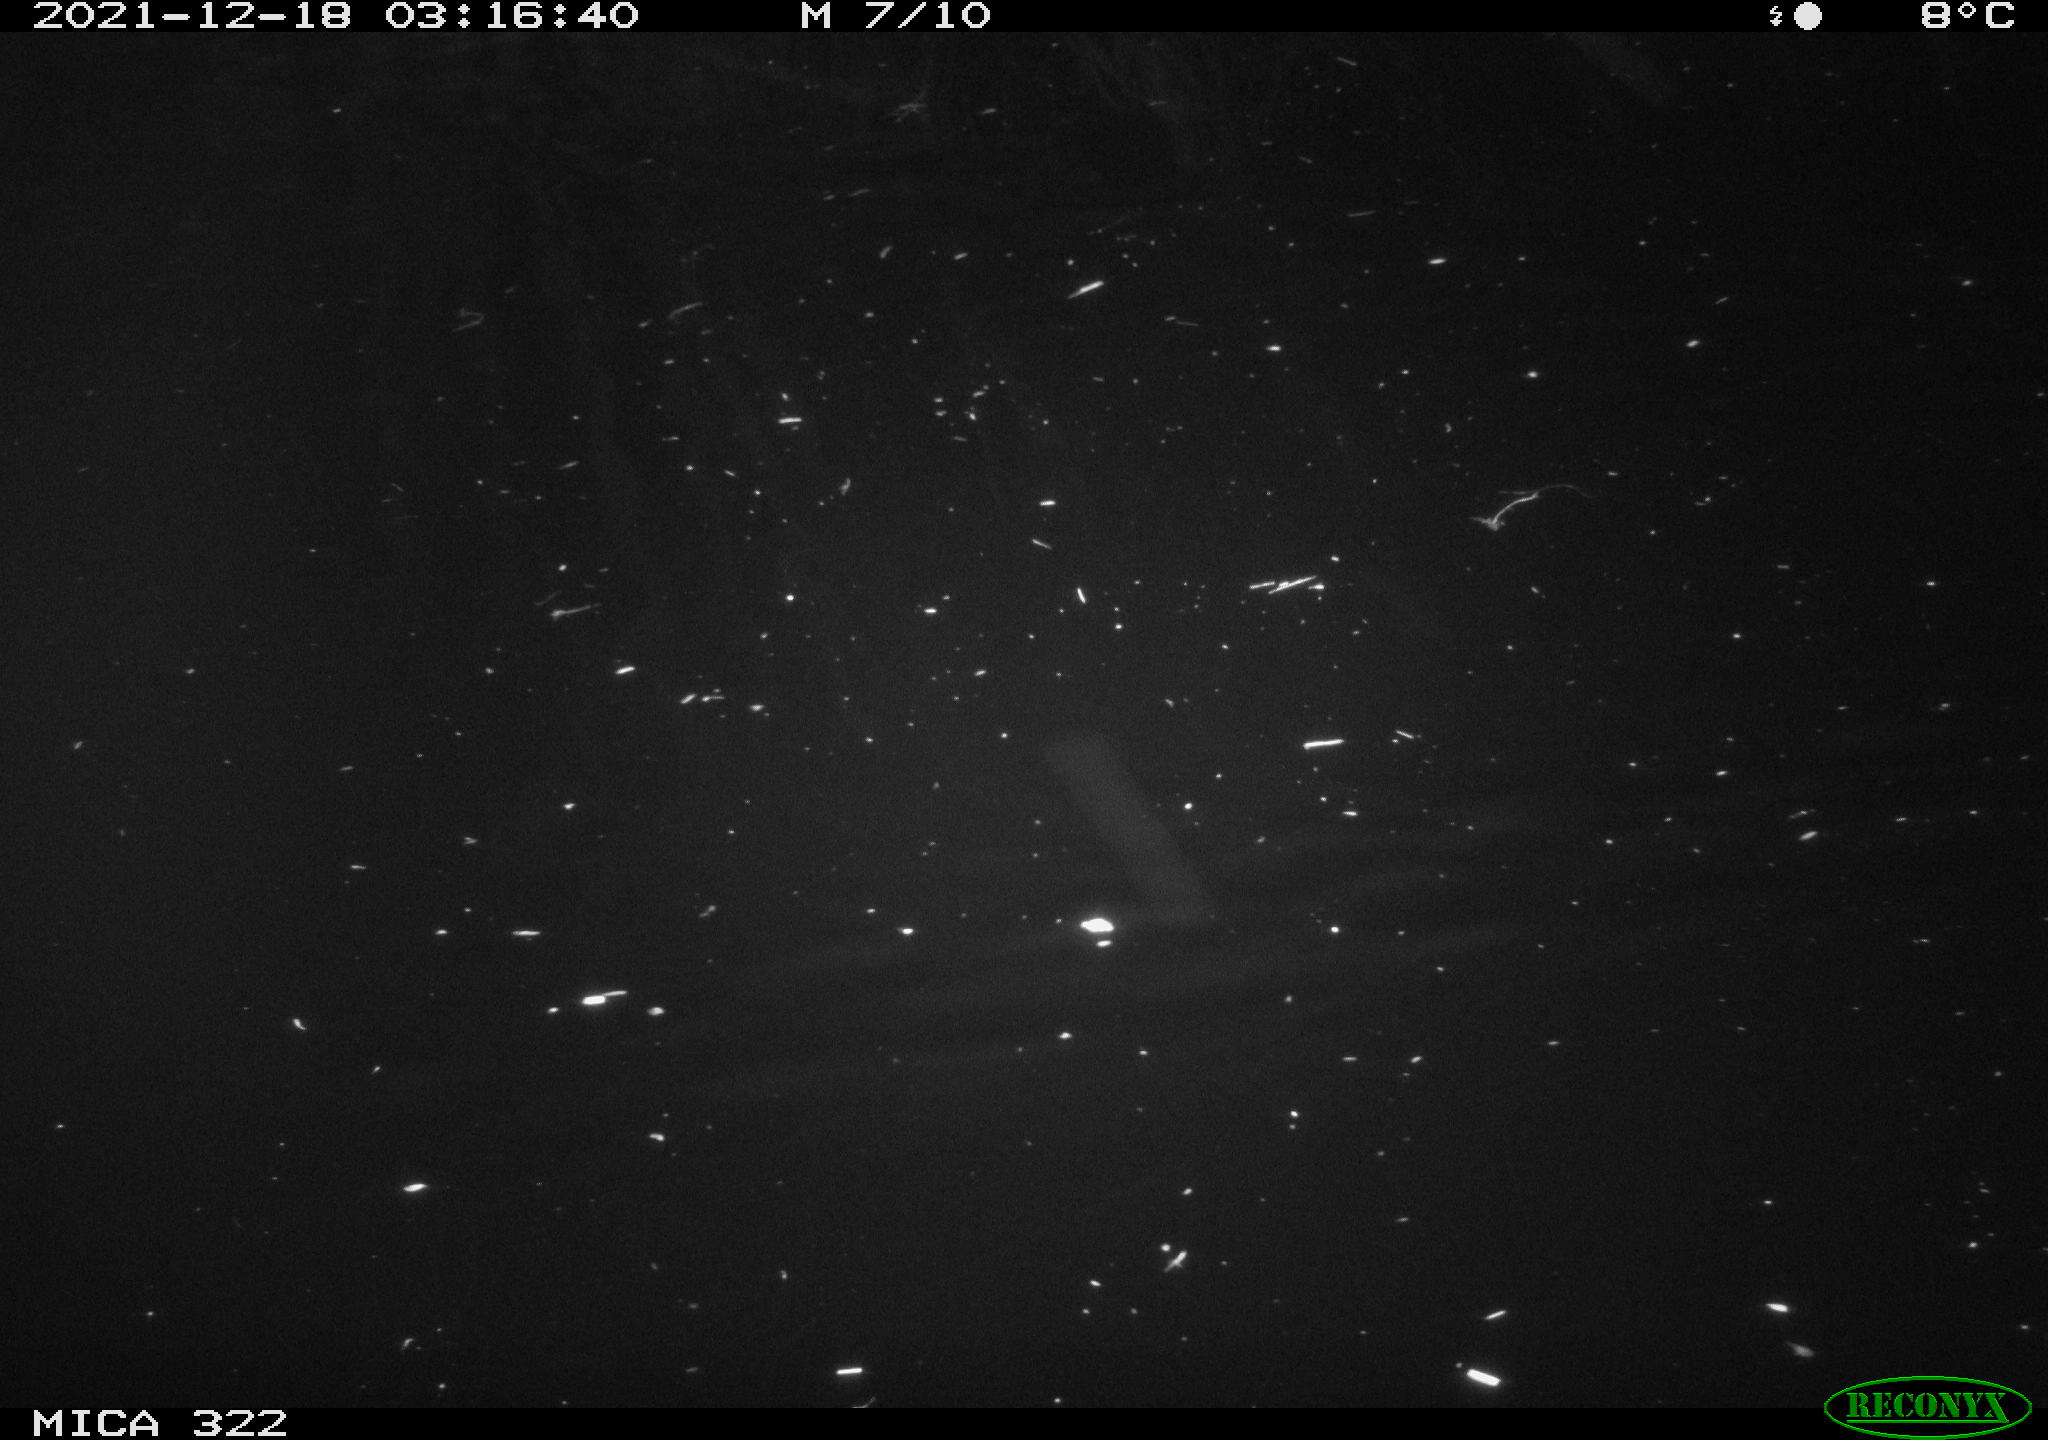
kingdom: Animalia
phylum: Chordata
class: Mammalia
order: Rodentia
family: Muridae
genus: Rattus
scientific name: Rattus norvegicus
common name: Brown rat
